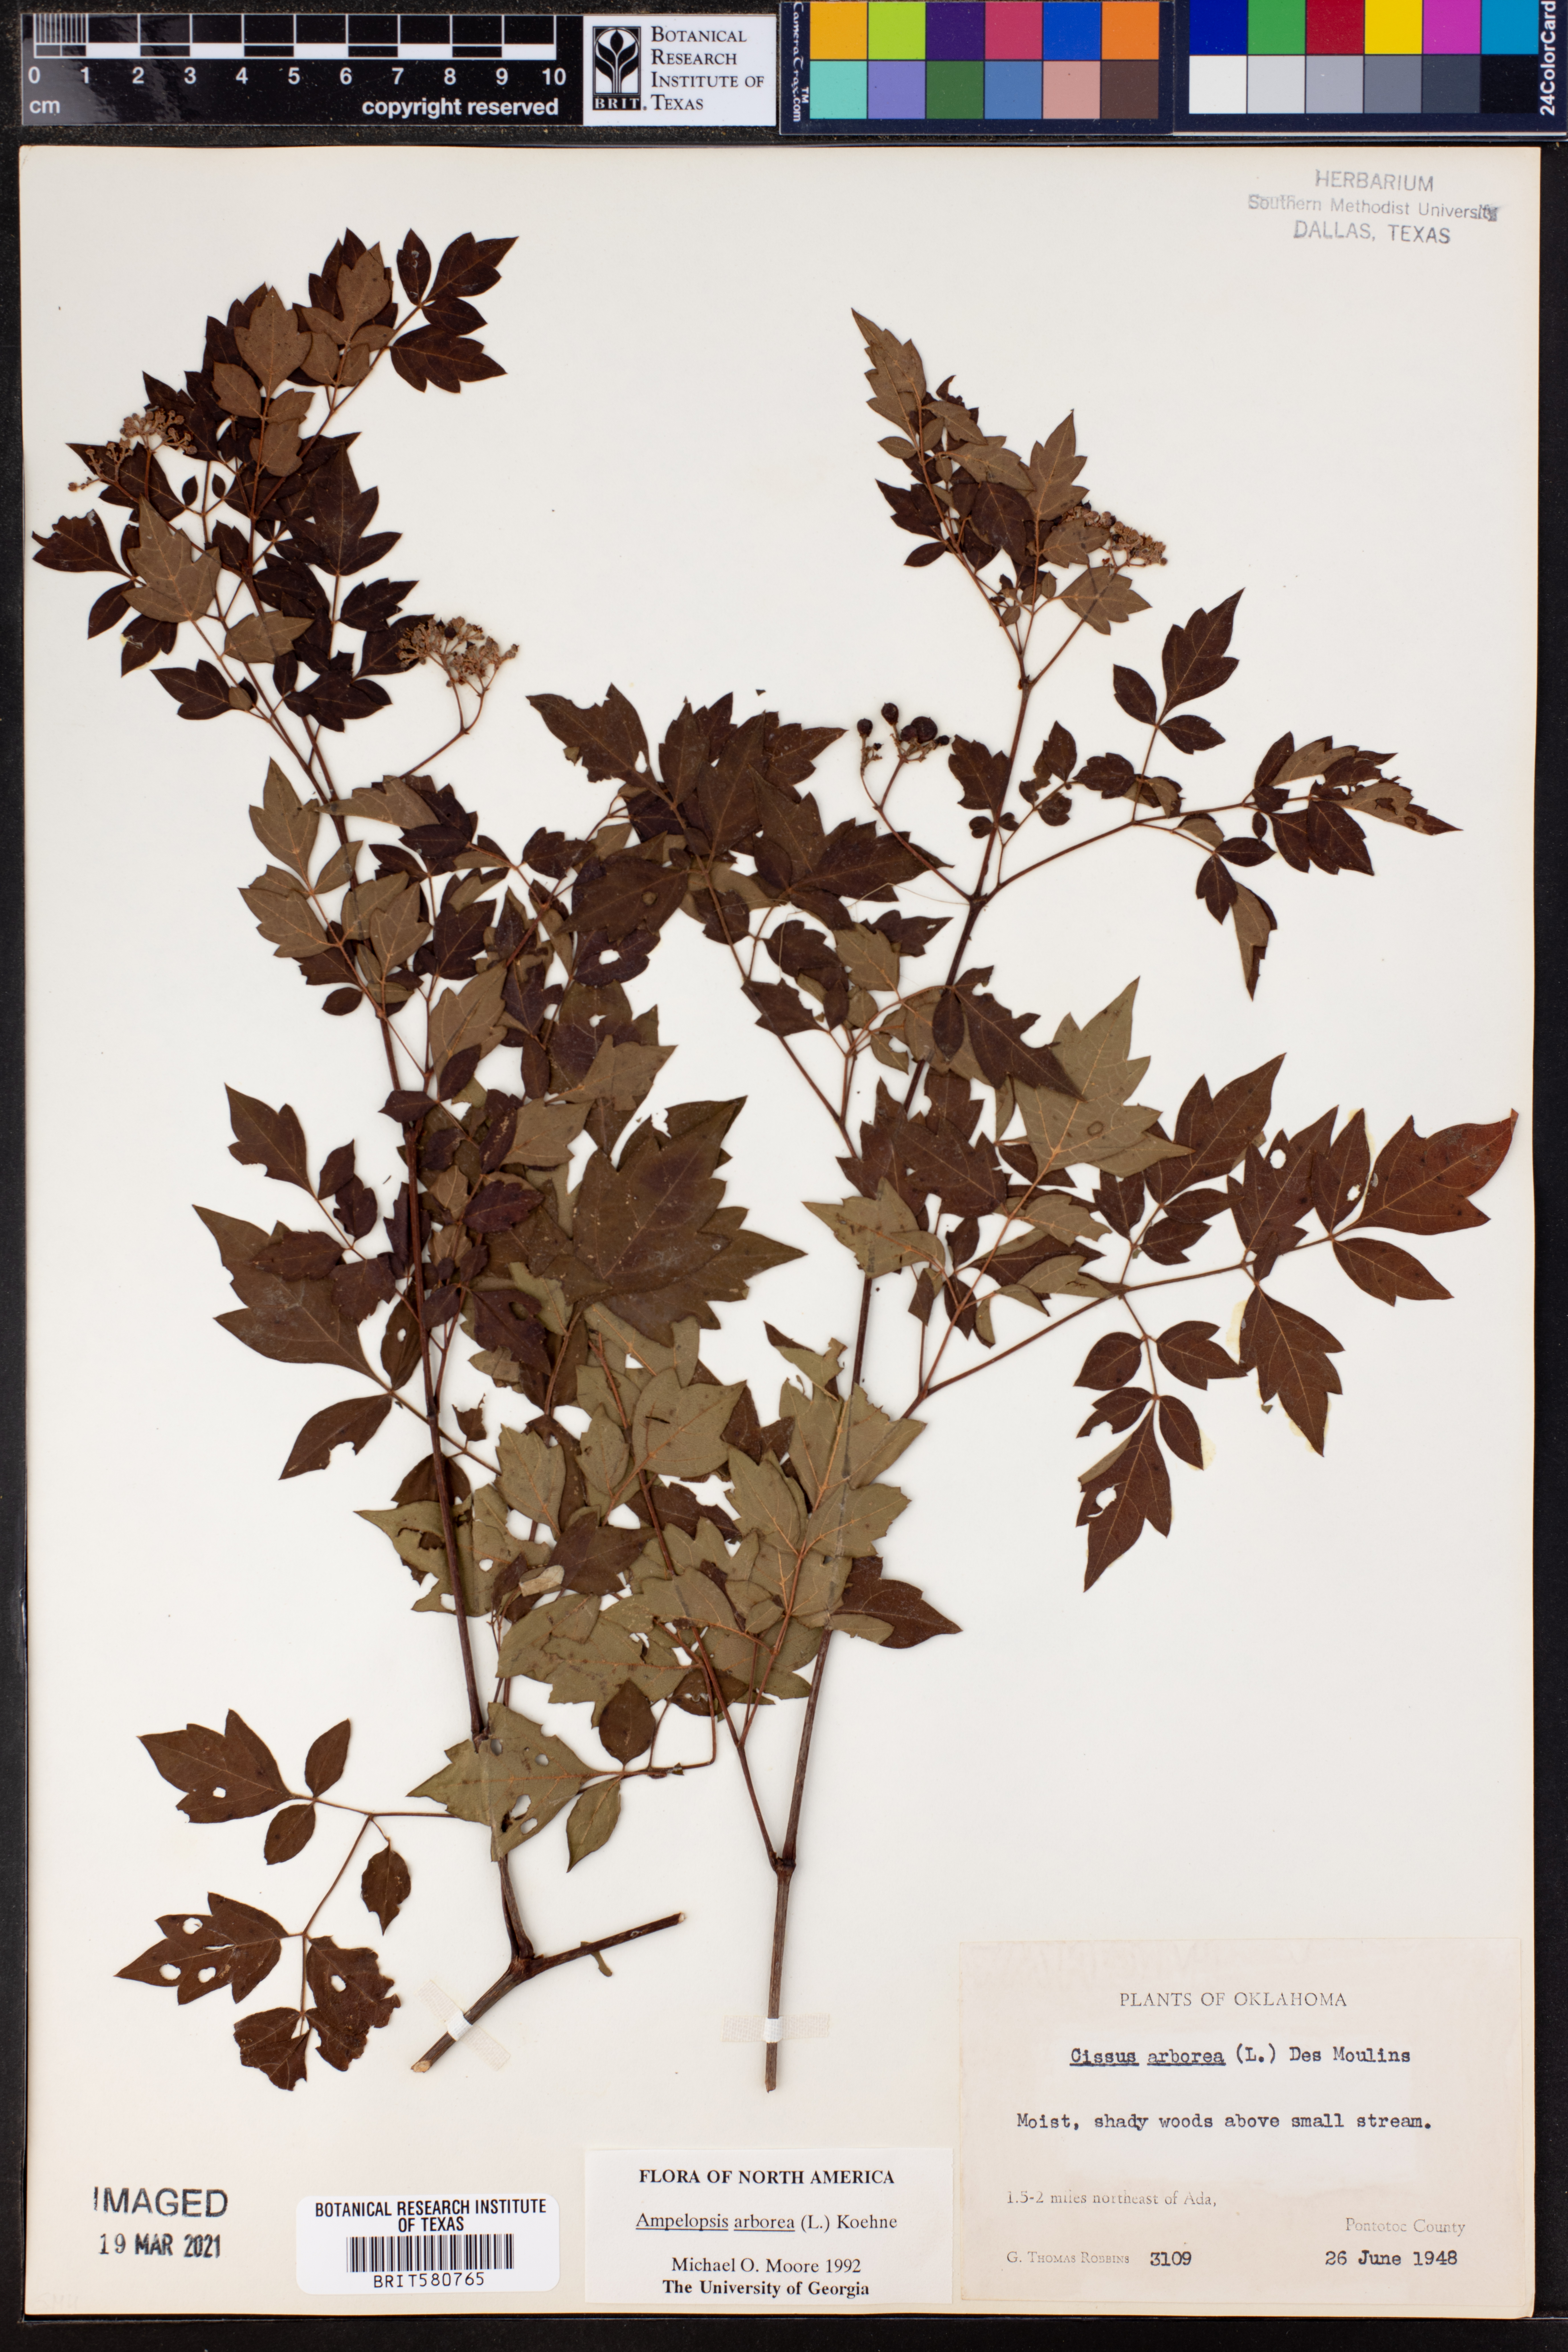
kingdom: Plantae
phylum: Tracheophyta
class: Magnoliopsida
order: Vitales
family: Vitaceae
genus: Nekemias
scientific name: Nekemias arborea
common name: Peppervine
